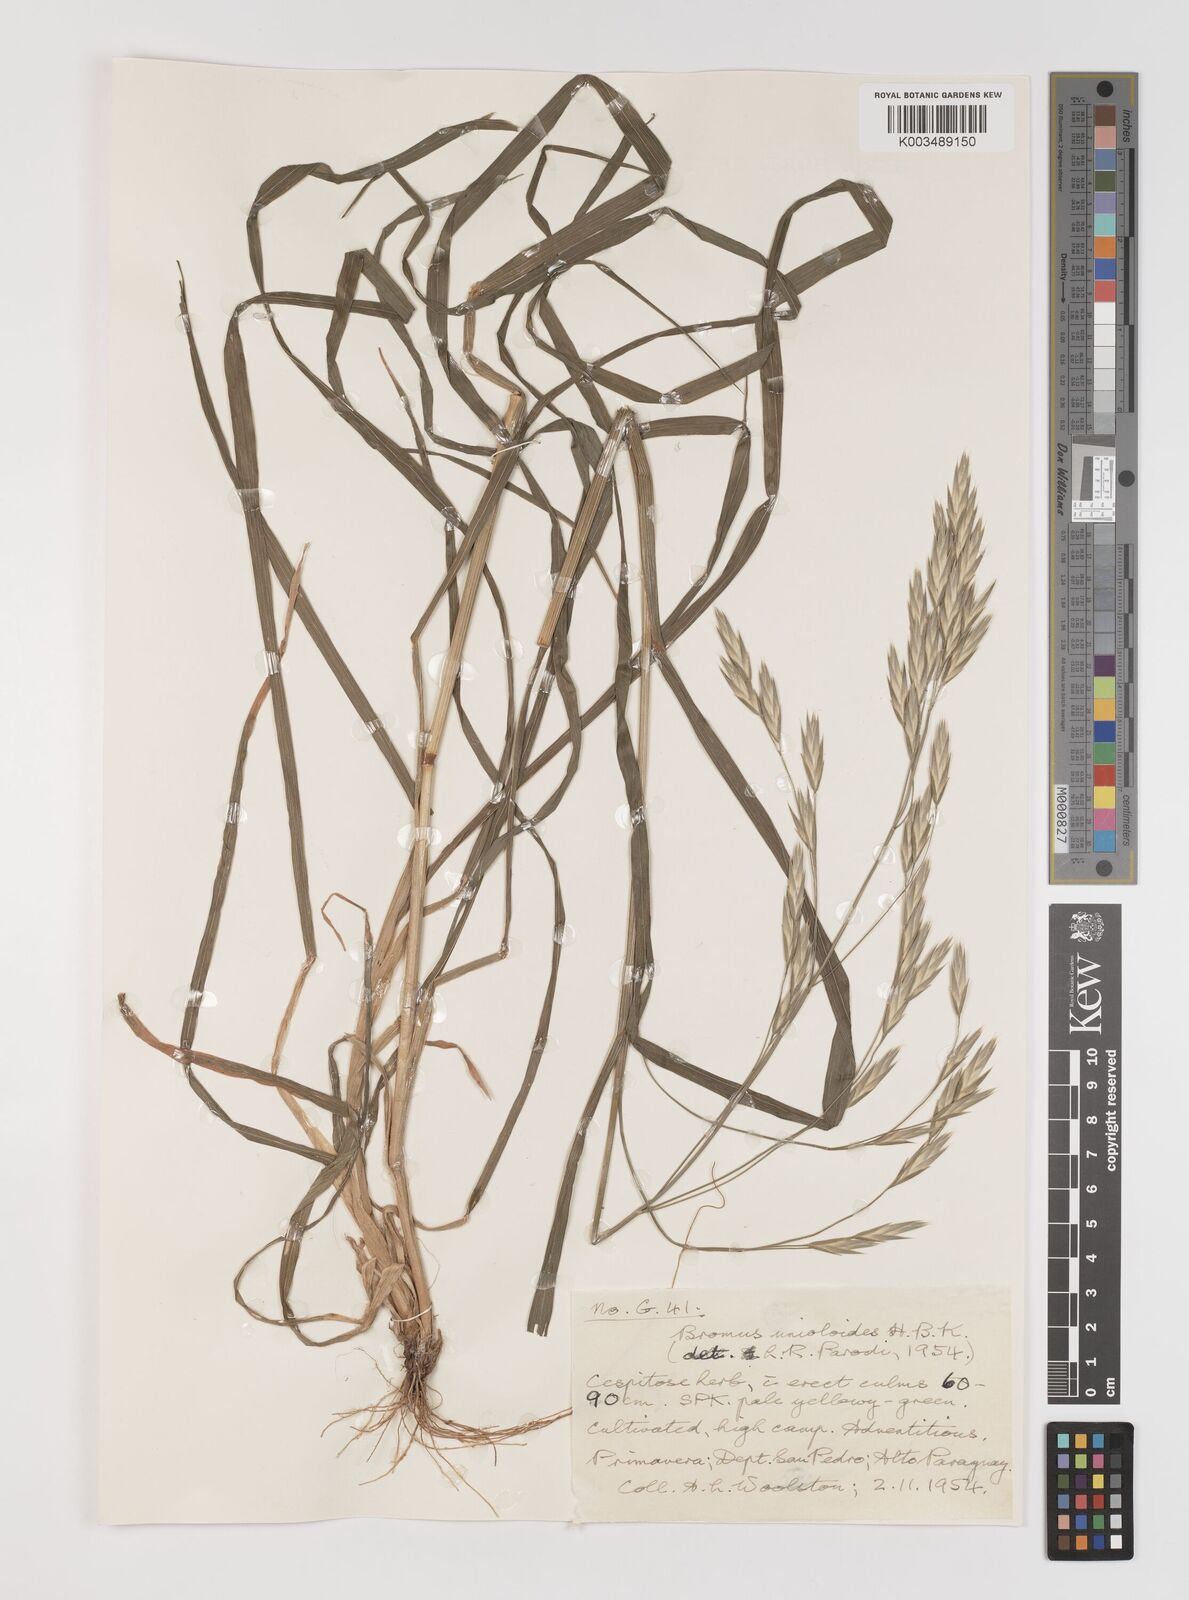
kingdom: Plantae
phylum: Tracheophyta
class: Liliopsida
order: Poales
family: Poaceae
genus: Bromus
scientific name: Bromus catharticus
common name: Rescuegrass
